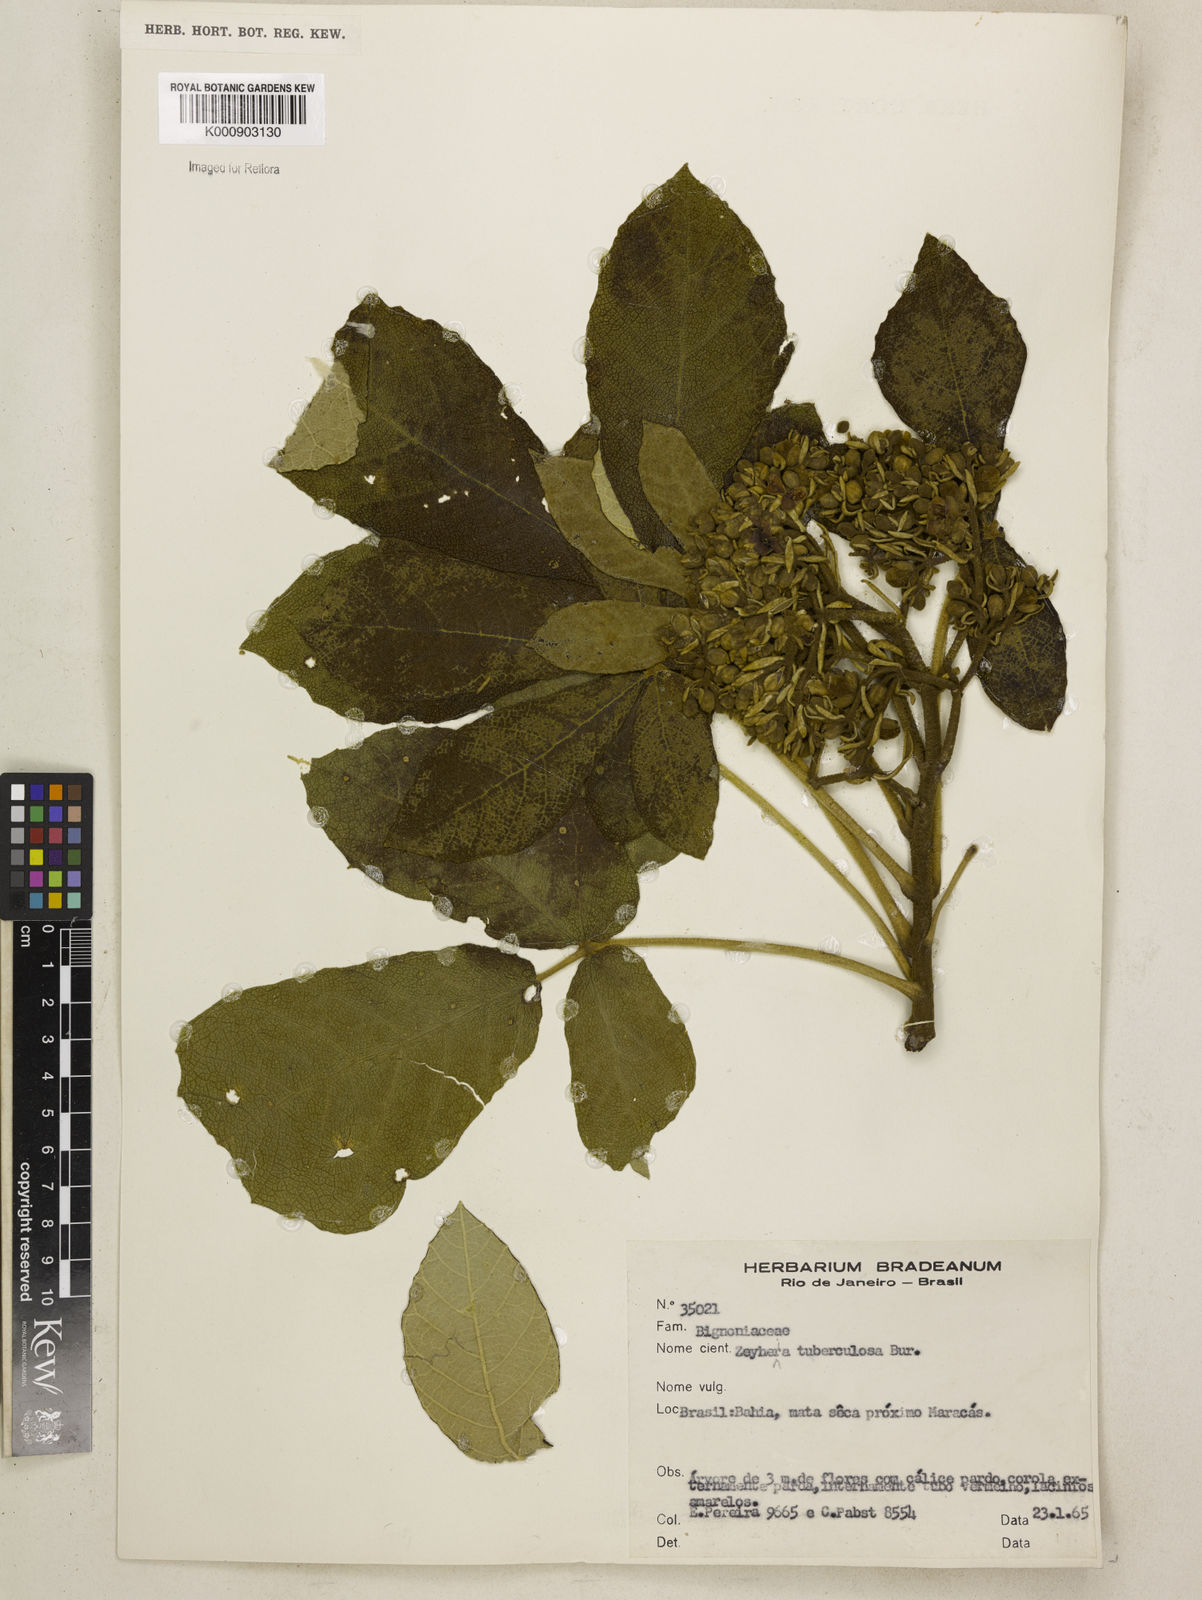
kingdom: Plantae
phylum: Tracheophyta
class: Magnoliopsida
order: Lamiales
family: Bignoniaceae
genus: Zeyheria
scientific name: Zeyheria
